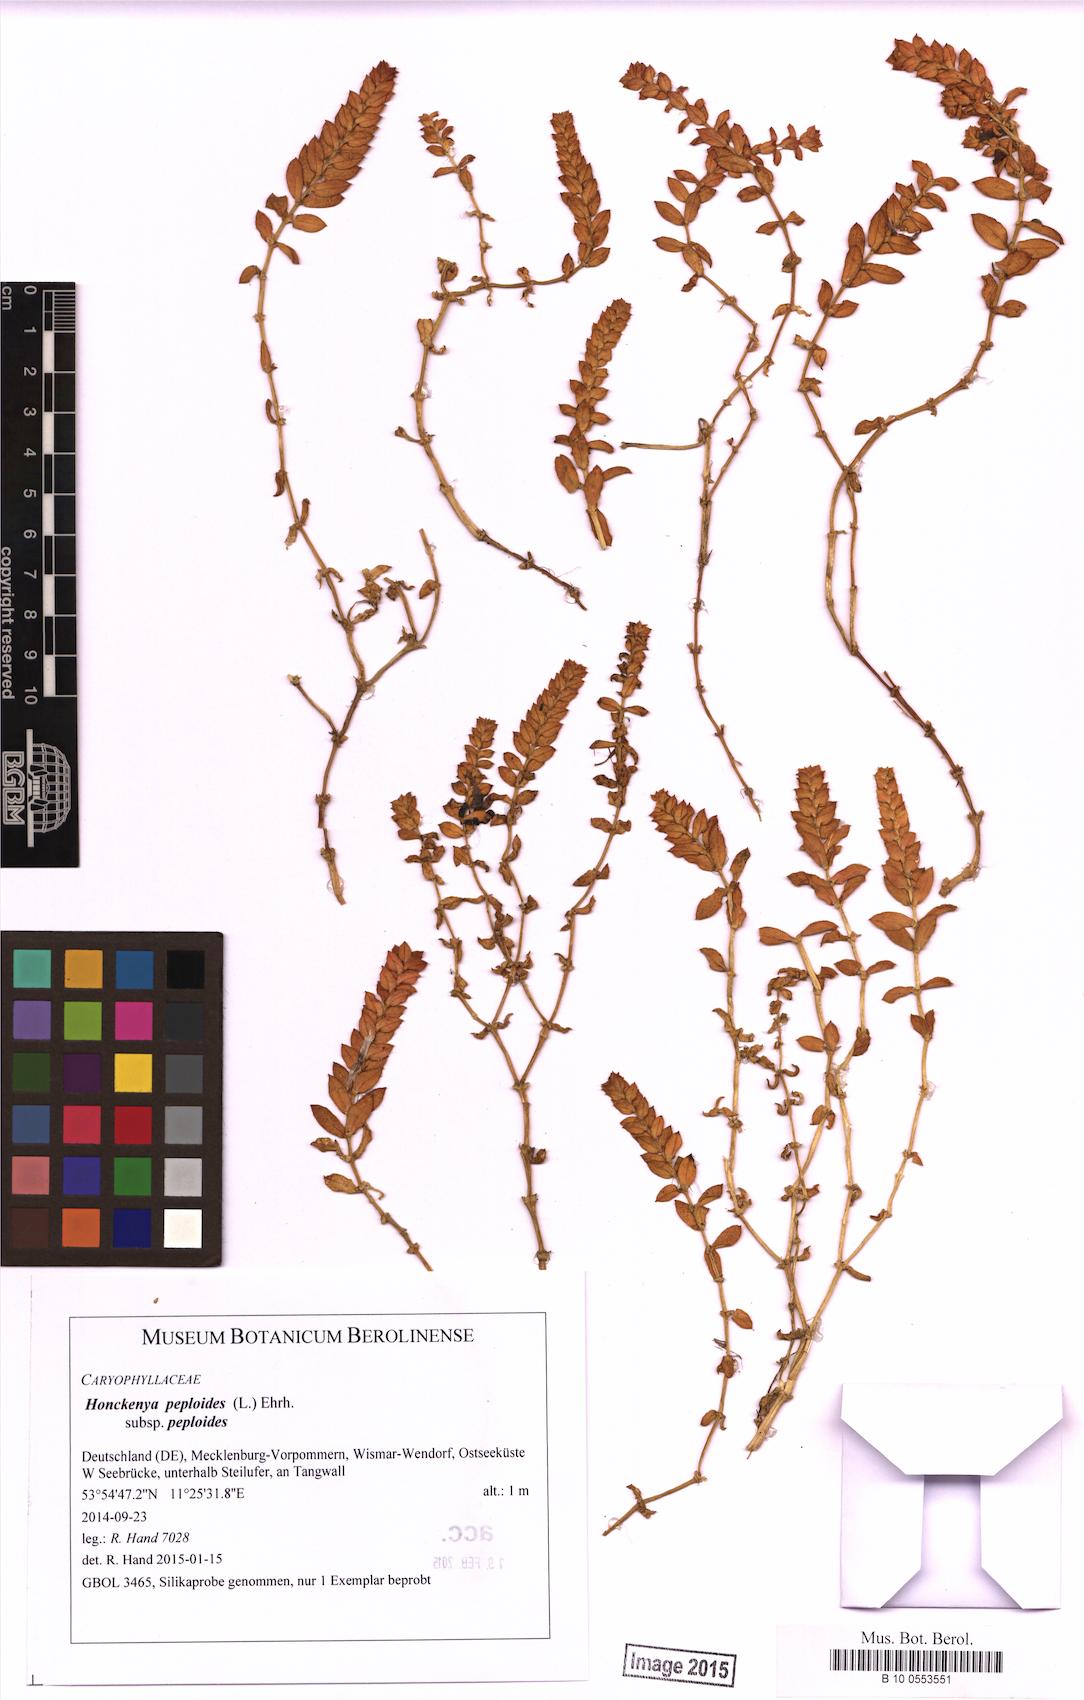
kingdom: Plantae
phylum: Tracheophyta
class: Magnoliopsida
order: Caryophyllales
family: Caryophyllaceae
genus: Honckenya
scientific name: Honckenya peploides
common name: Sea sandwort
